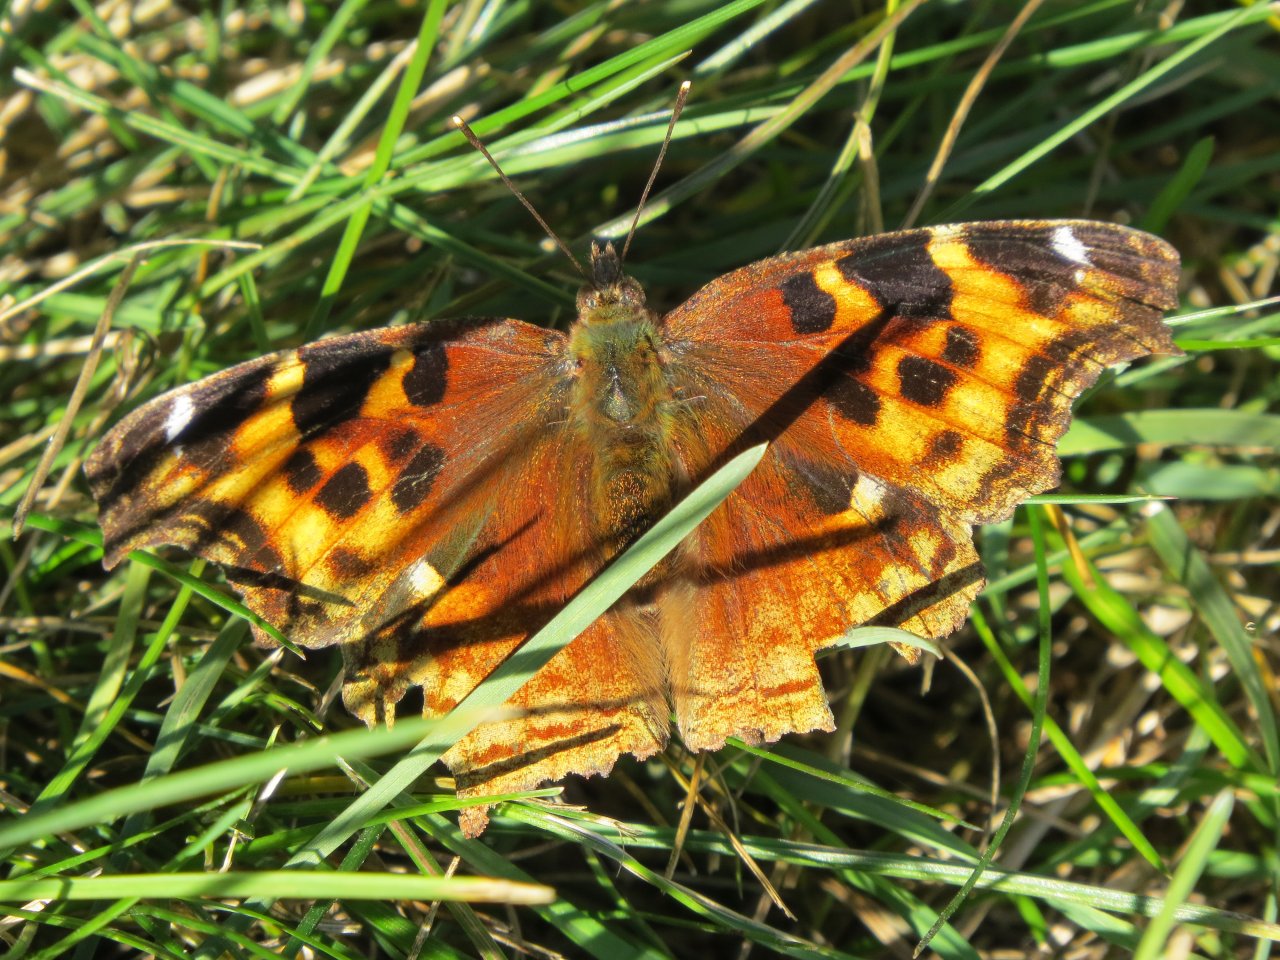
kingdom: Animalia
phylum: Arthropoda
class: Insecta
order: Lepidoptera
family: Nymphalidae
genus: Polygonia
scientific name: Polygonia vaualbum
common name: Compton Tortoiseshell
